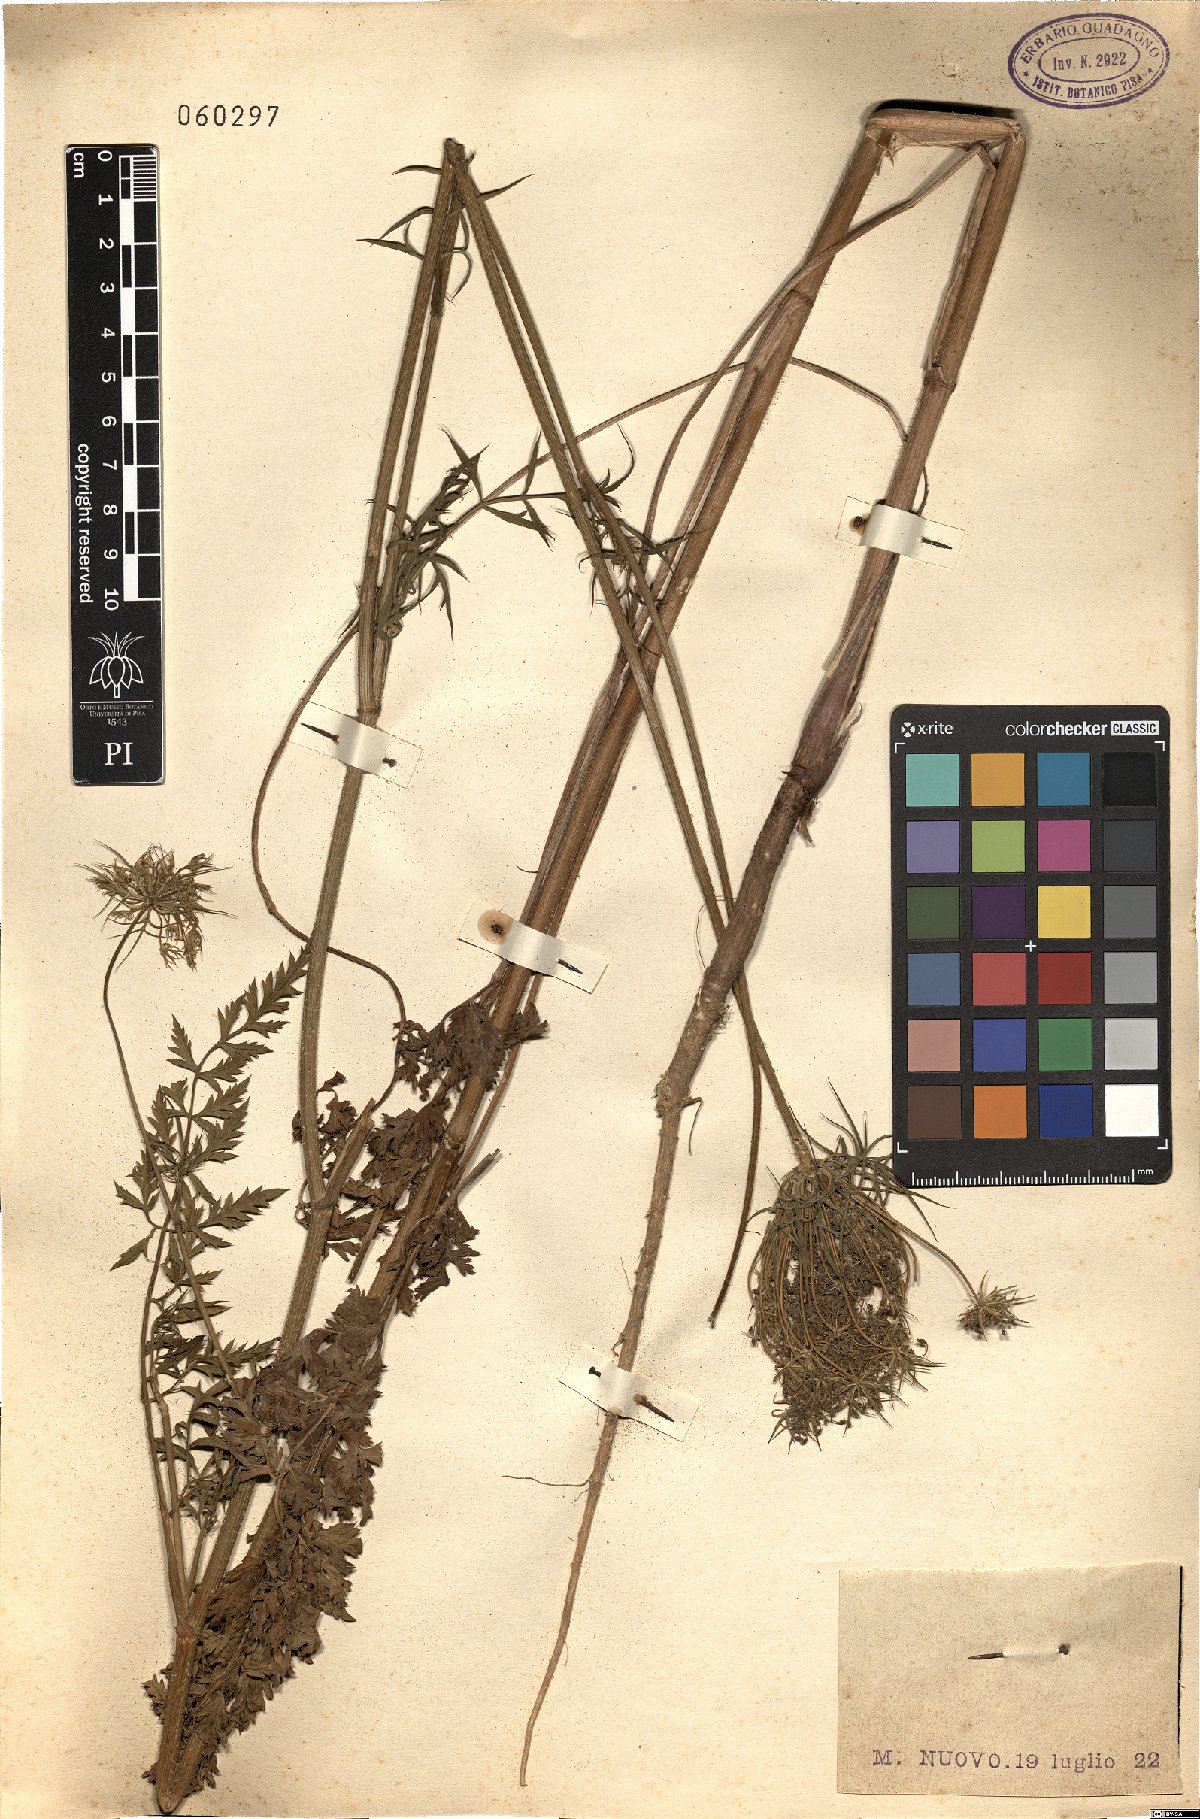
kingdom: Plantae
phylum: Tracheophyta
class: Magnoliopsida
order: Apiales
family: Apiaceae
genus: Daucus
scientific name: Daucus carota
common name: Wild carrot
